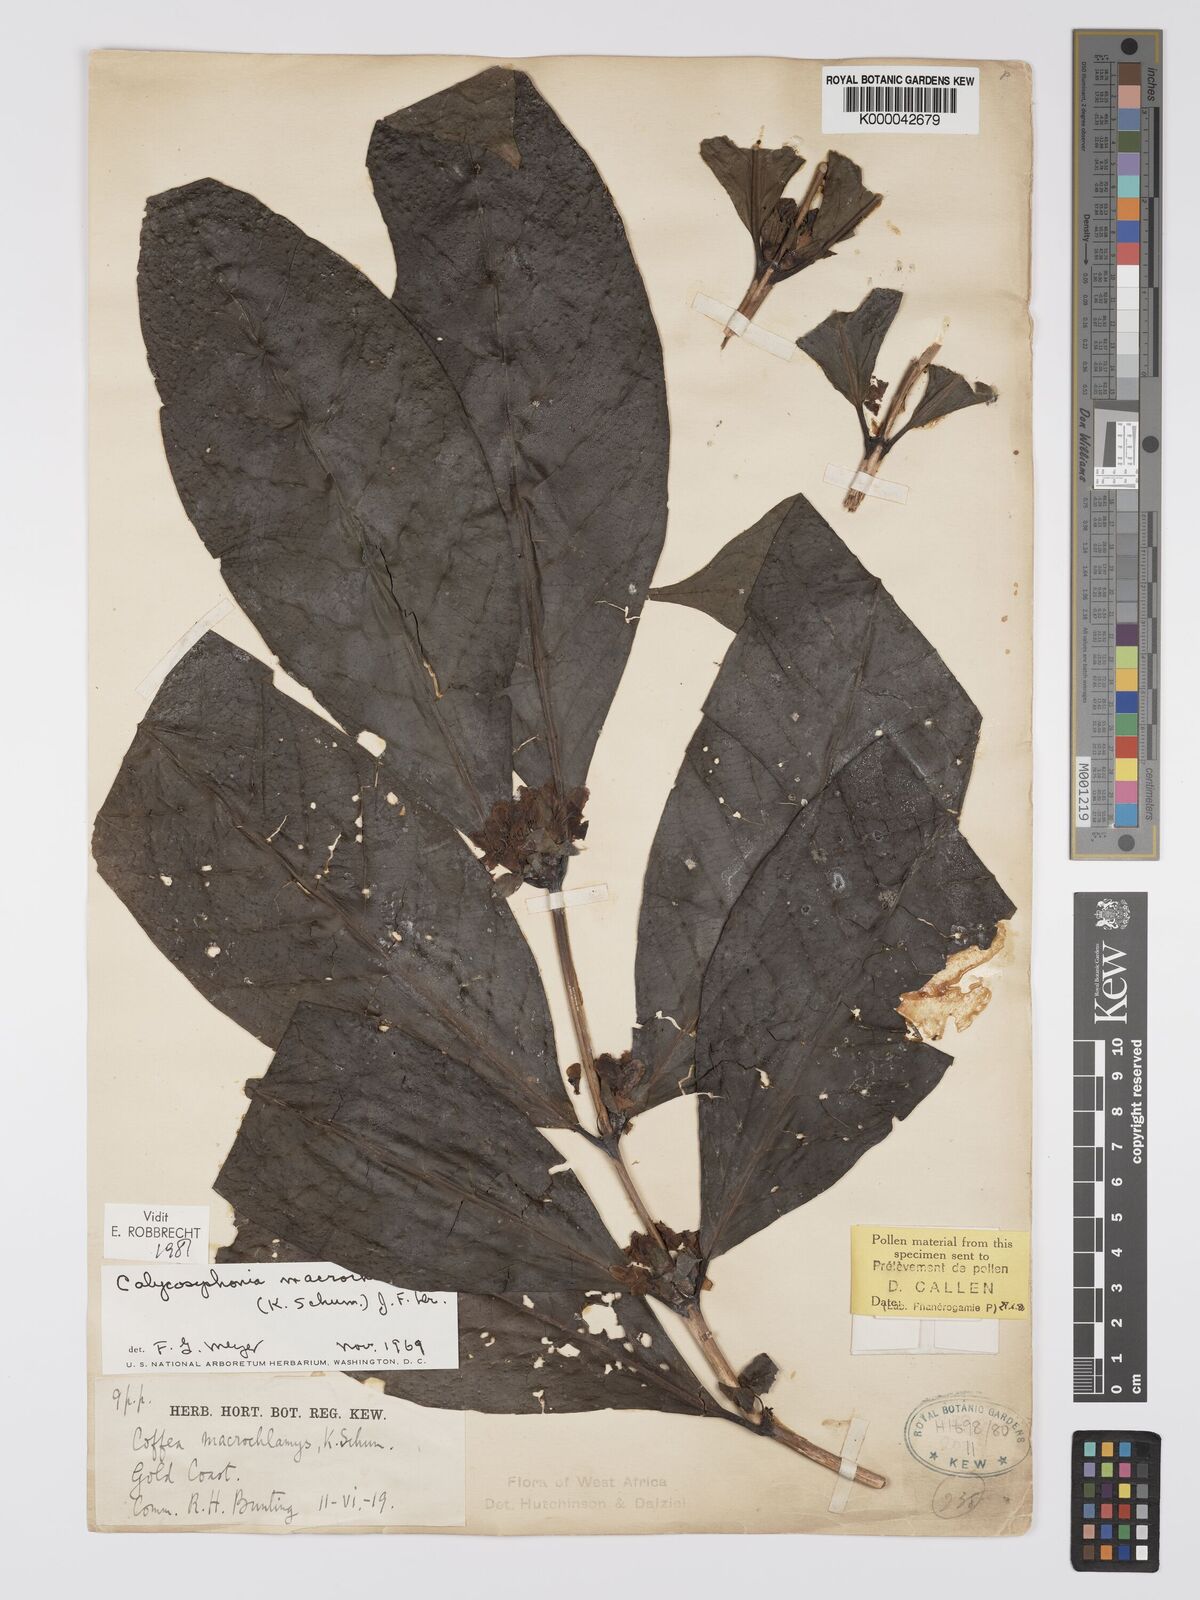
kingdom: Plantae
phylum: Tracheophyta
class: Magnoliopsida
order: Gentianales
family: Rubiaceae
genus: Calycosiphonia
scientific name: Calycosiphonia
